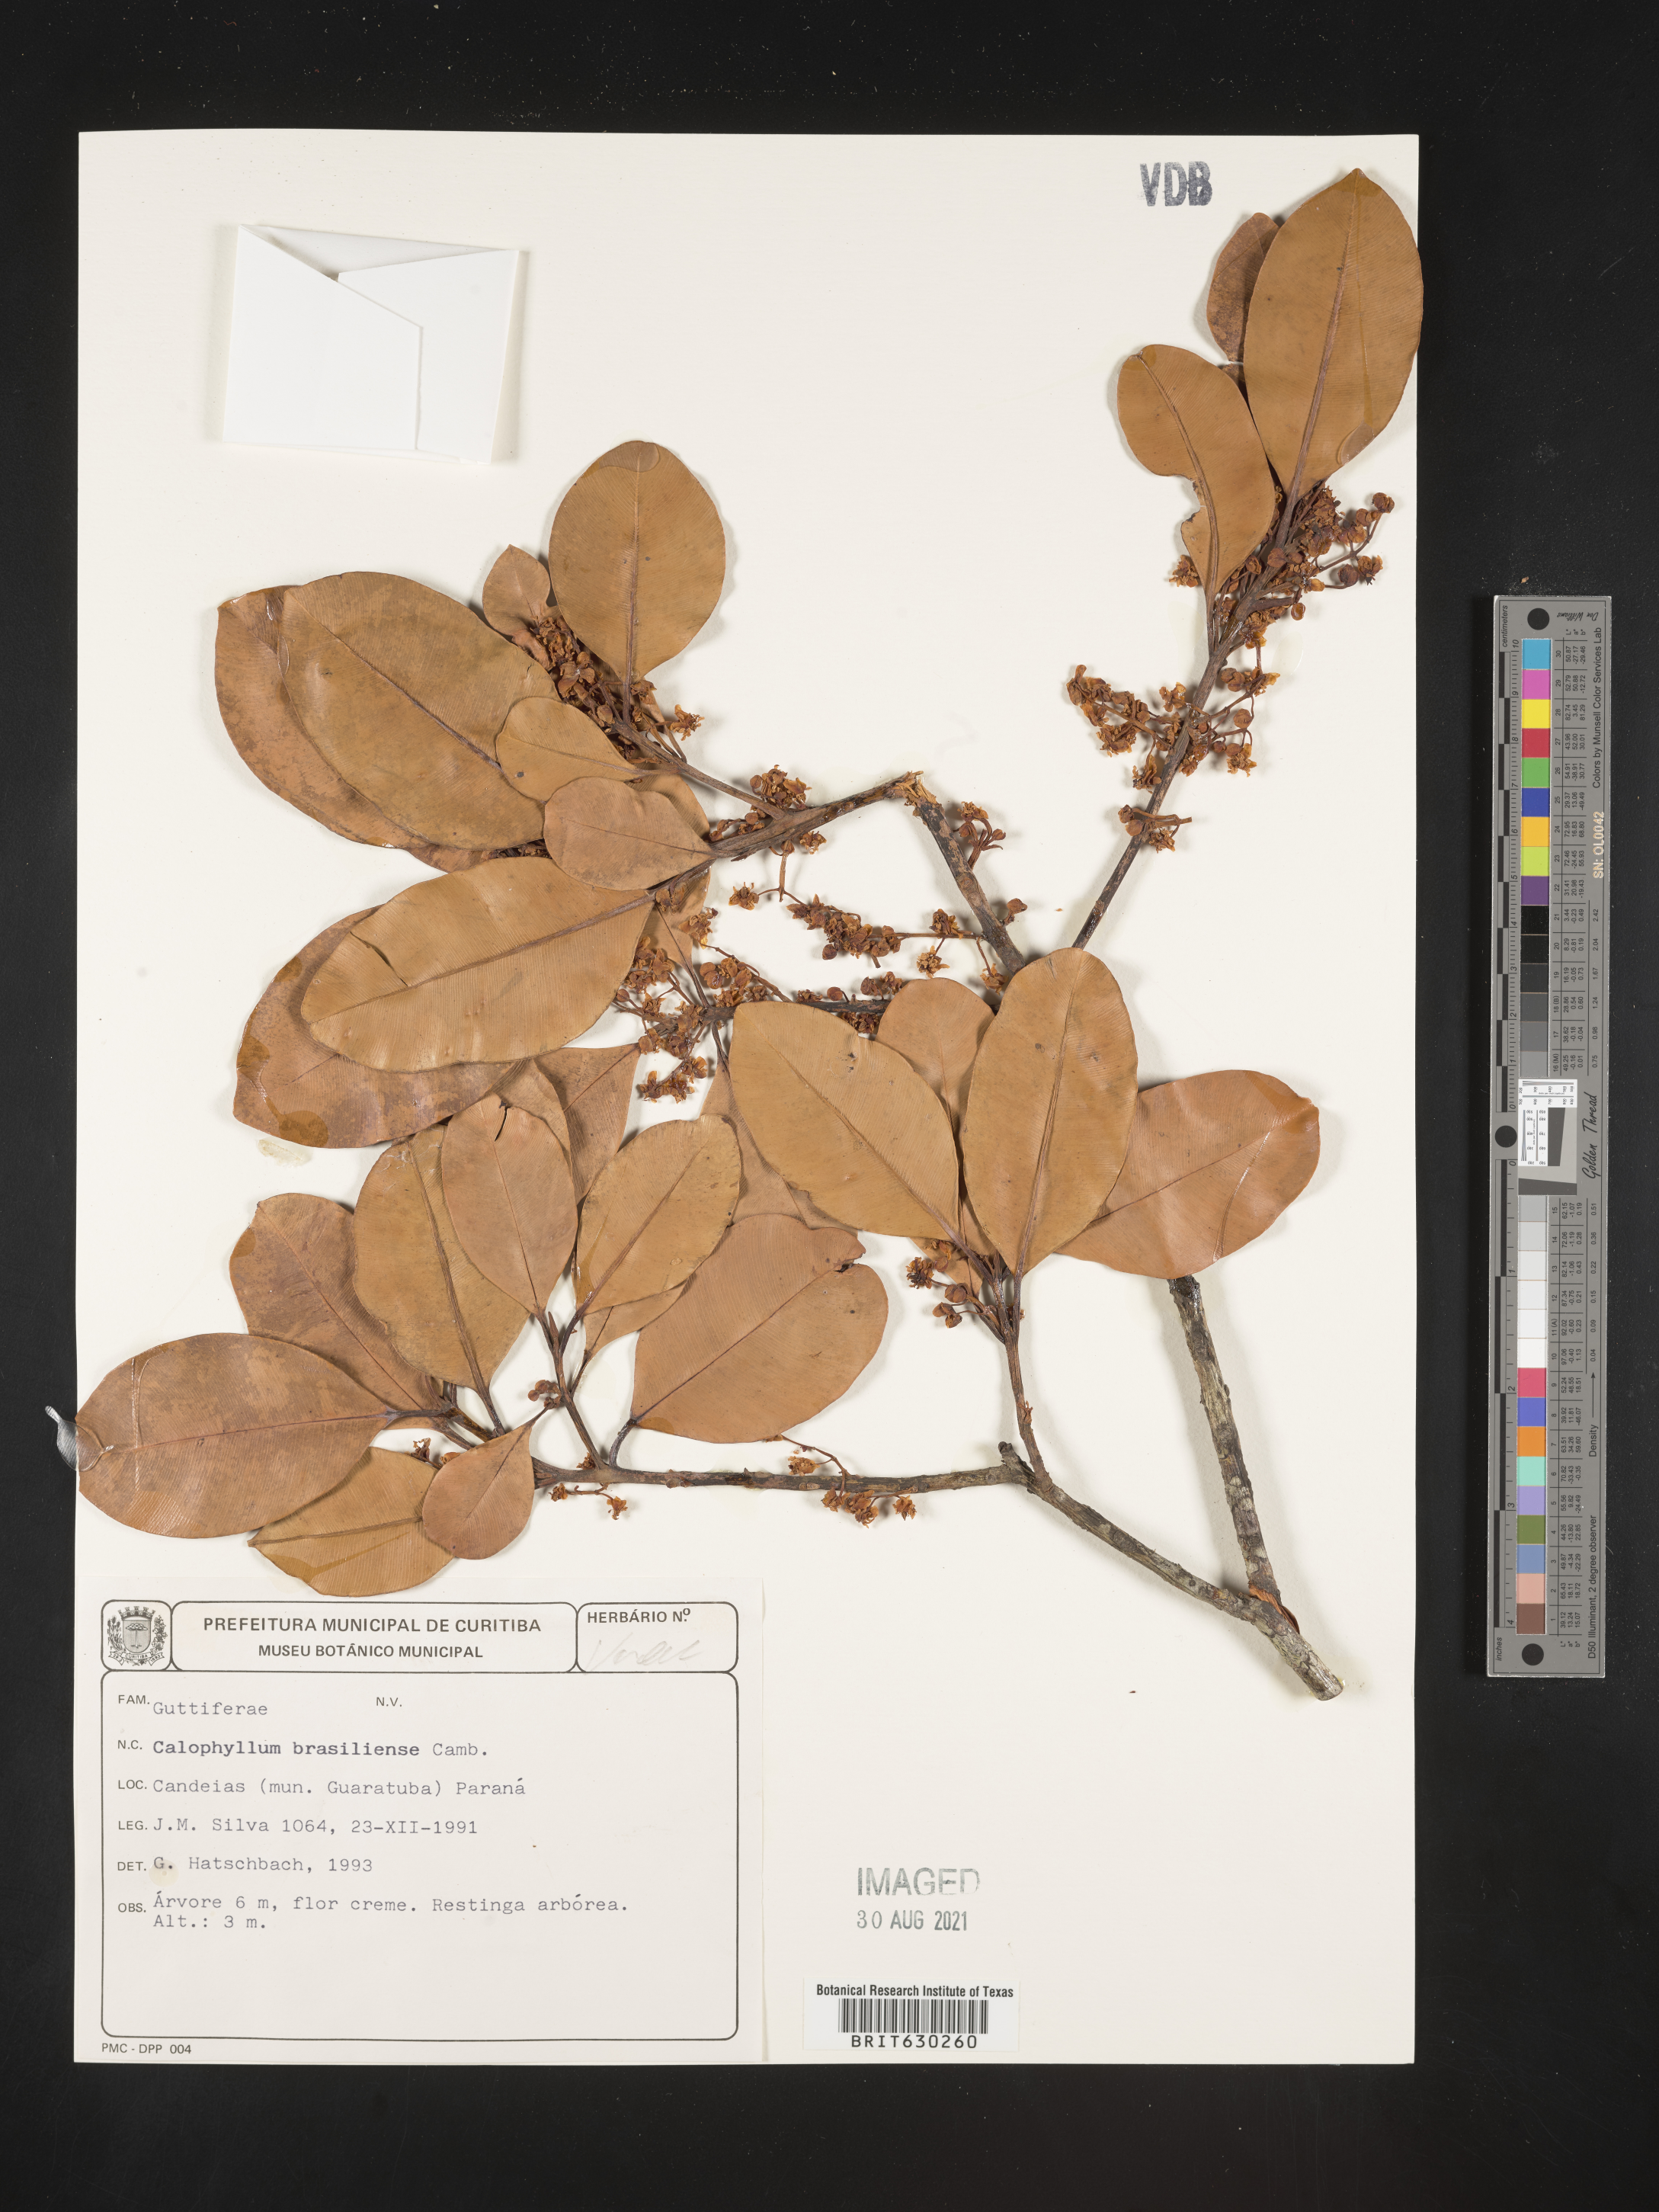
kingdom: Plantae
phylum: Tracheophyta
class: Magnoliopsida
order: Malpighiales
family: Calophyllaceae
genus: Calophyllum
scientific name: Calophyllum brasiliense
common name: Santa maria
